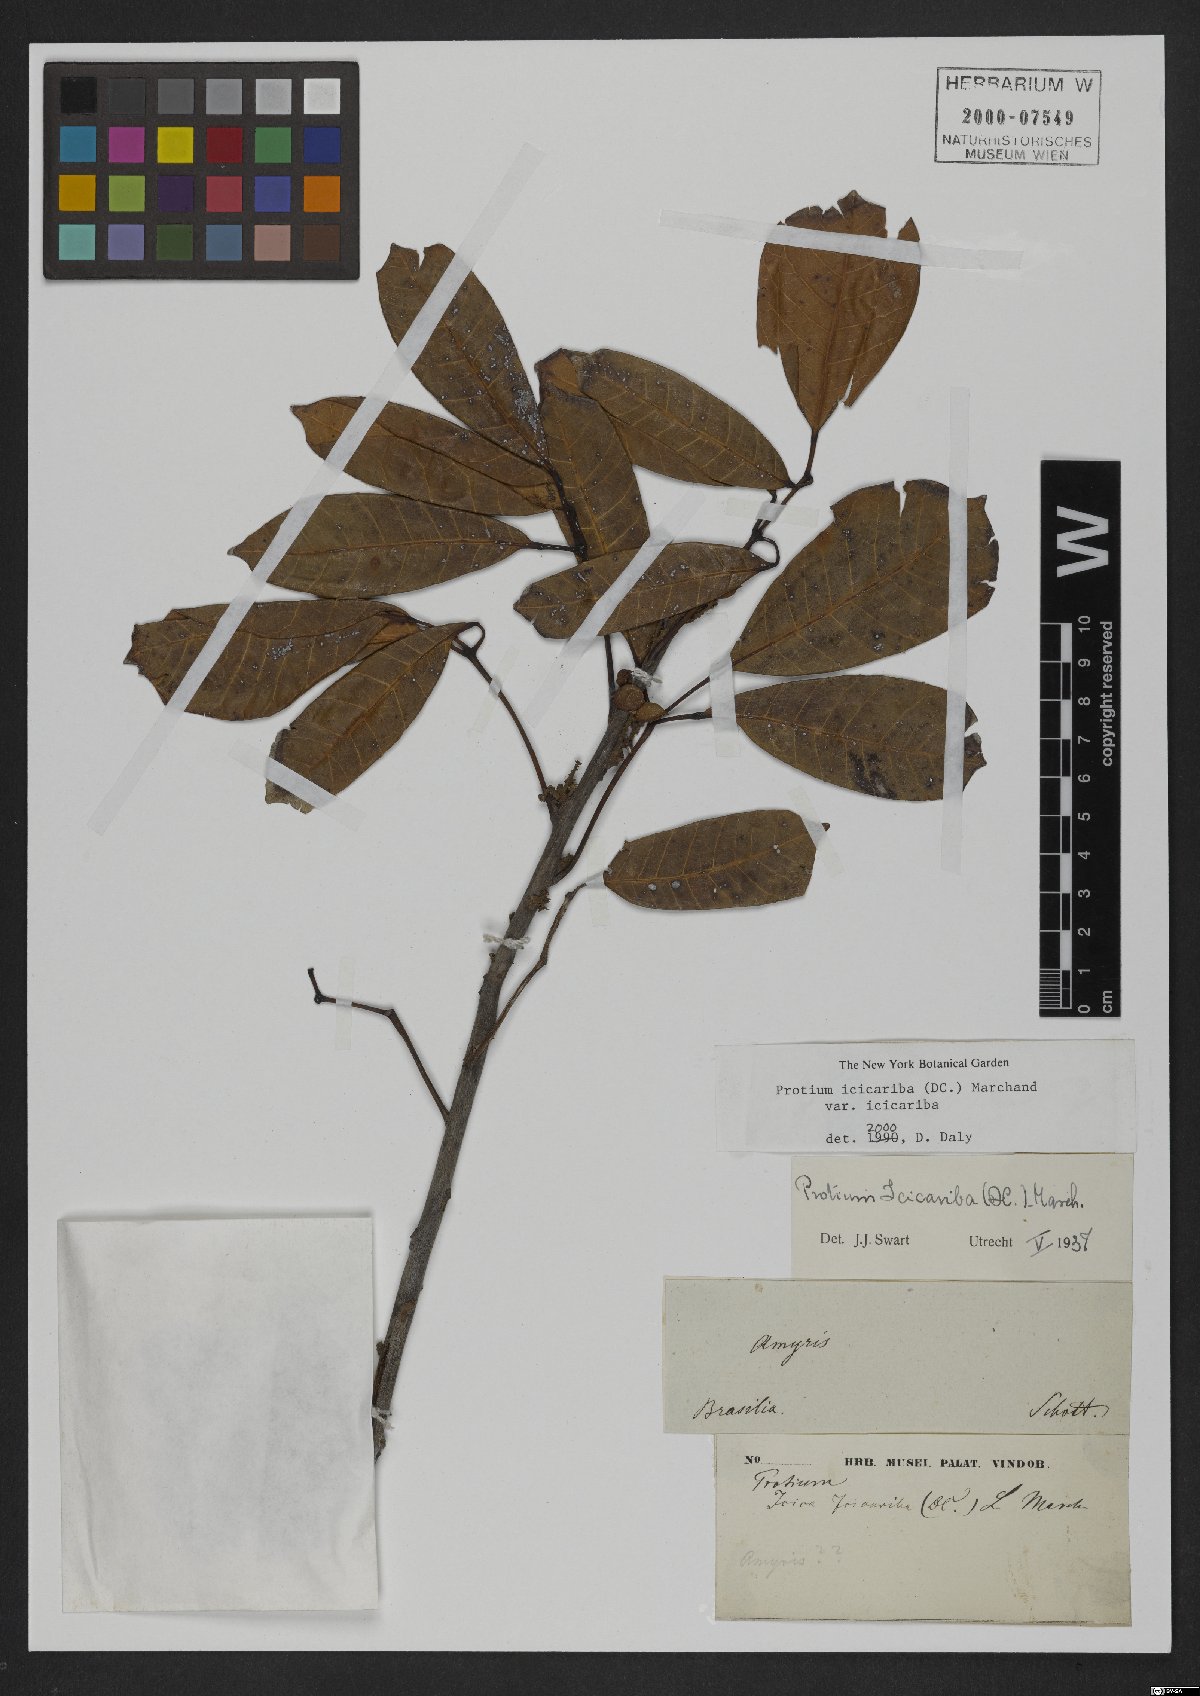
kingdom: Plantae
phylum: Tracheophyta
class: Magnoliopsida
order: Sapindales
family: Burseraceae
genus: Protium
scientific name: Protium icicariba
